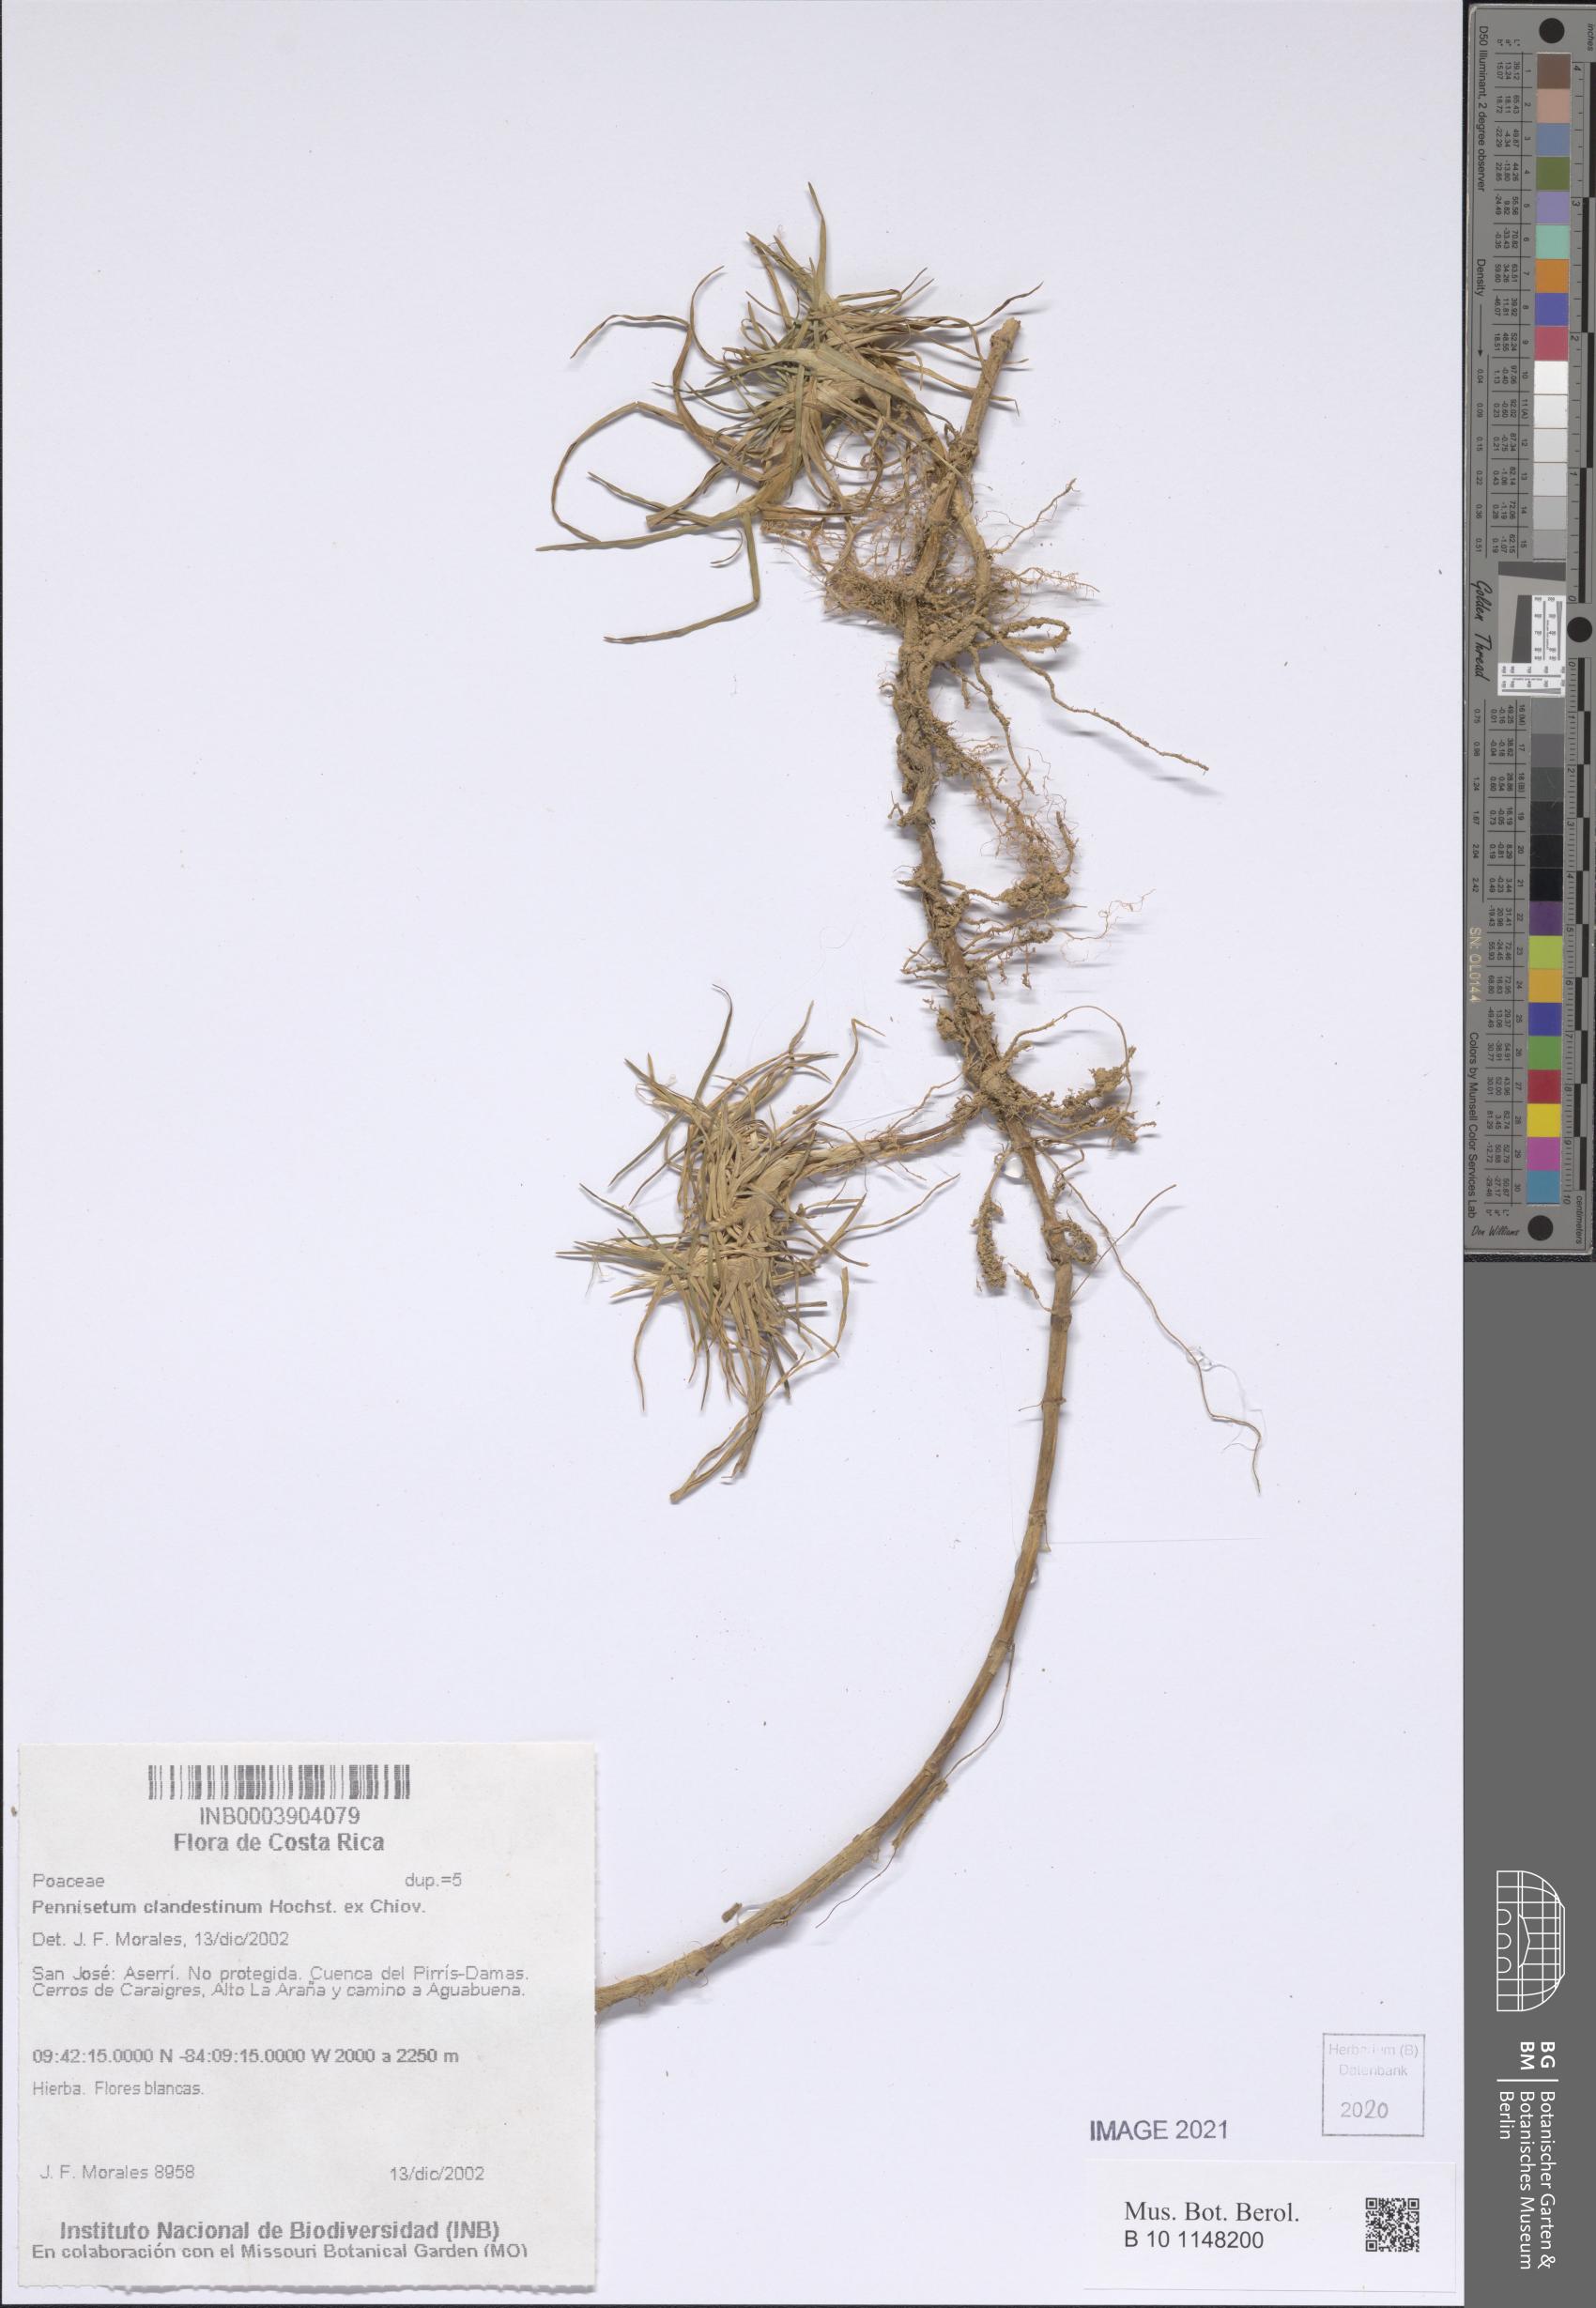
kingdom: Plantae
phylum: Tracheophyta
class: Liliopsida
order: Poales
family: Poaceae
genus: Cenchrus
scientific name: Cenchrus clandestinus
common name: Kikuyugrass
